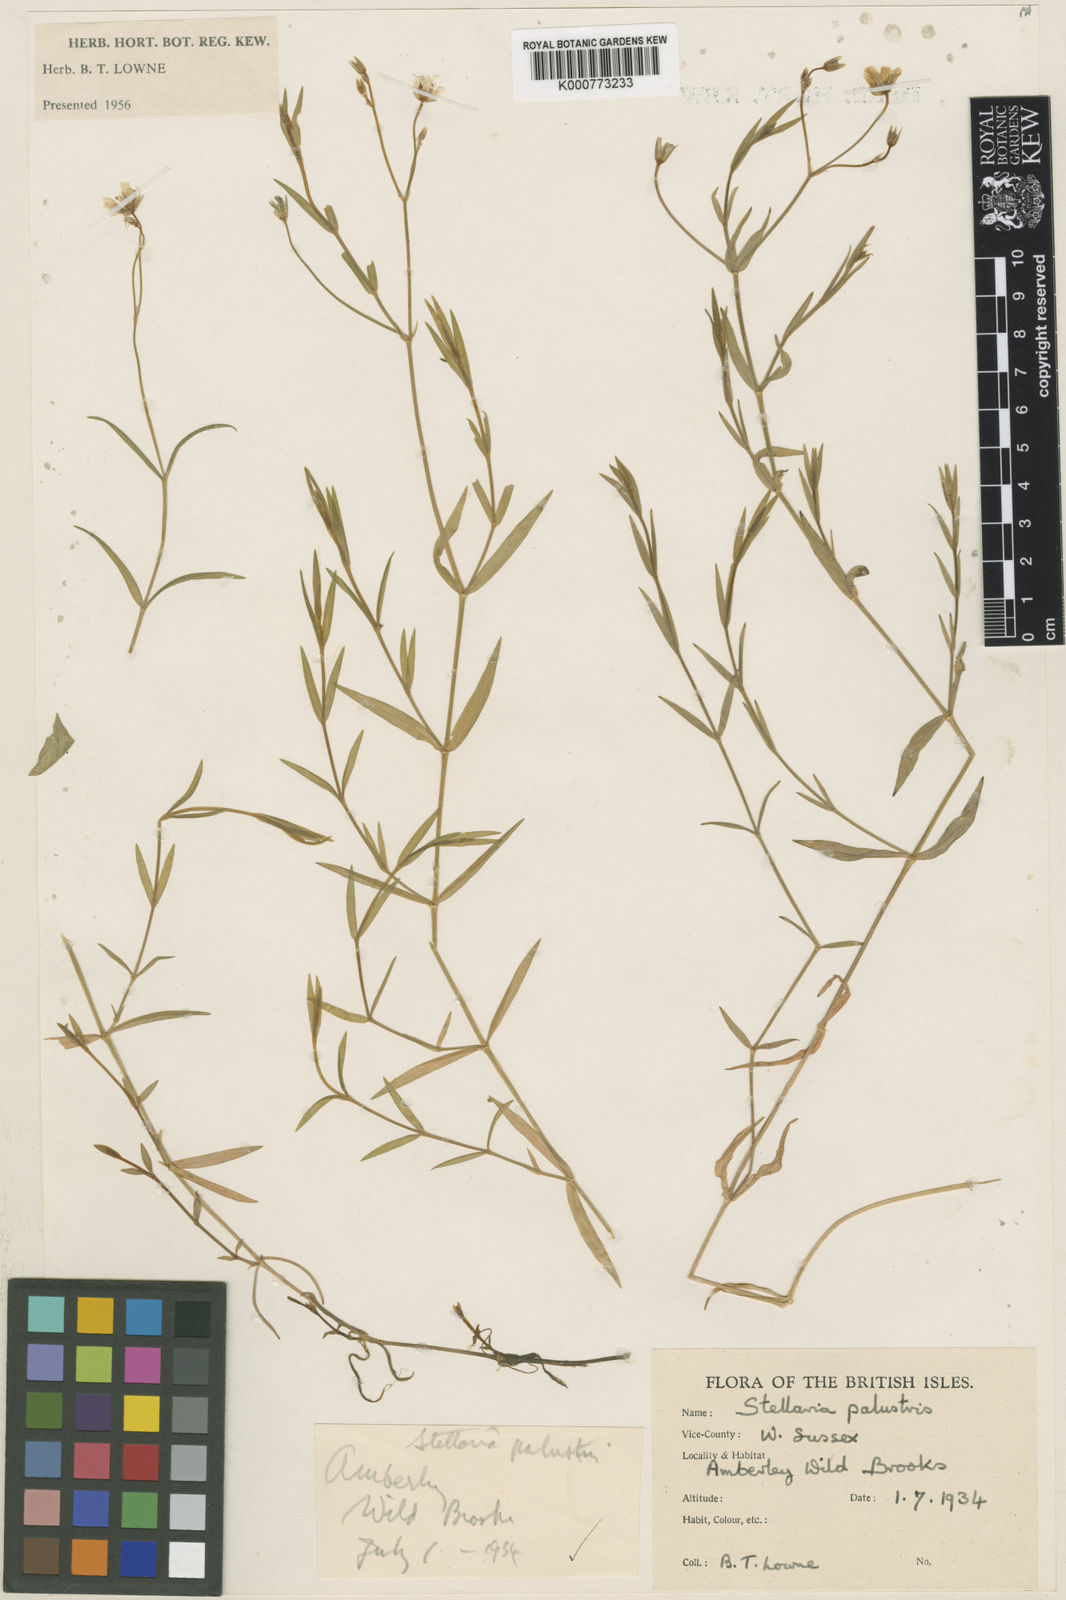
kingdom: Plantae
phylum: Tracheophyta
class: Magnoliopsida
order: Caryophyllales
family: Caryophyllaceae
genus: Stellaria
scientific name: Stellaria
